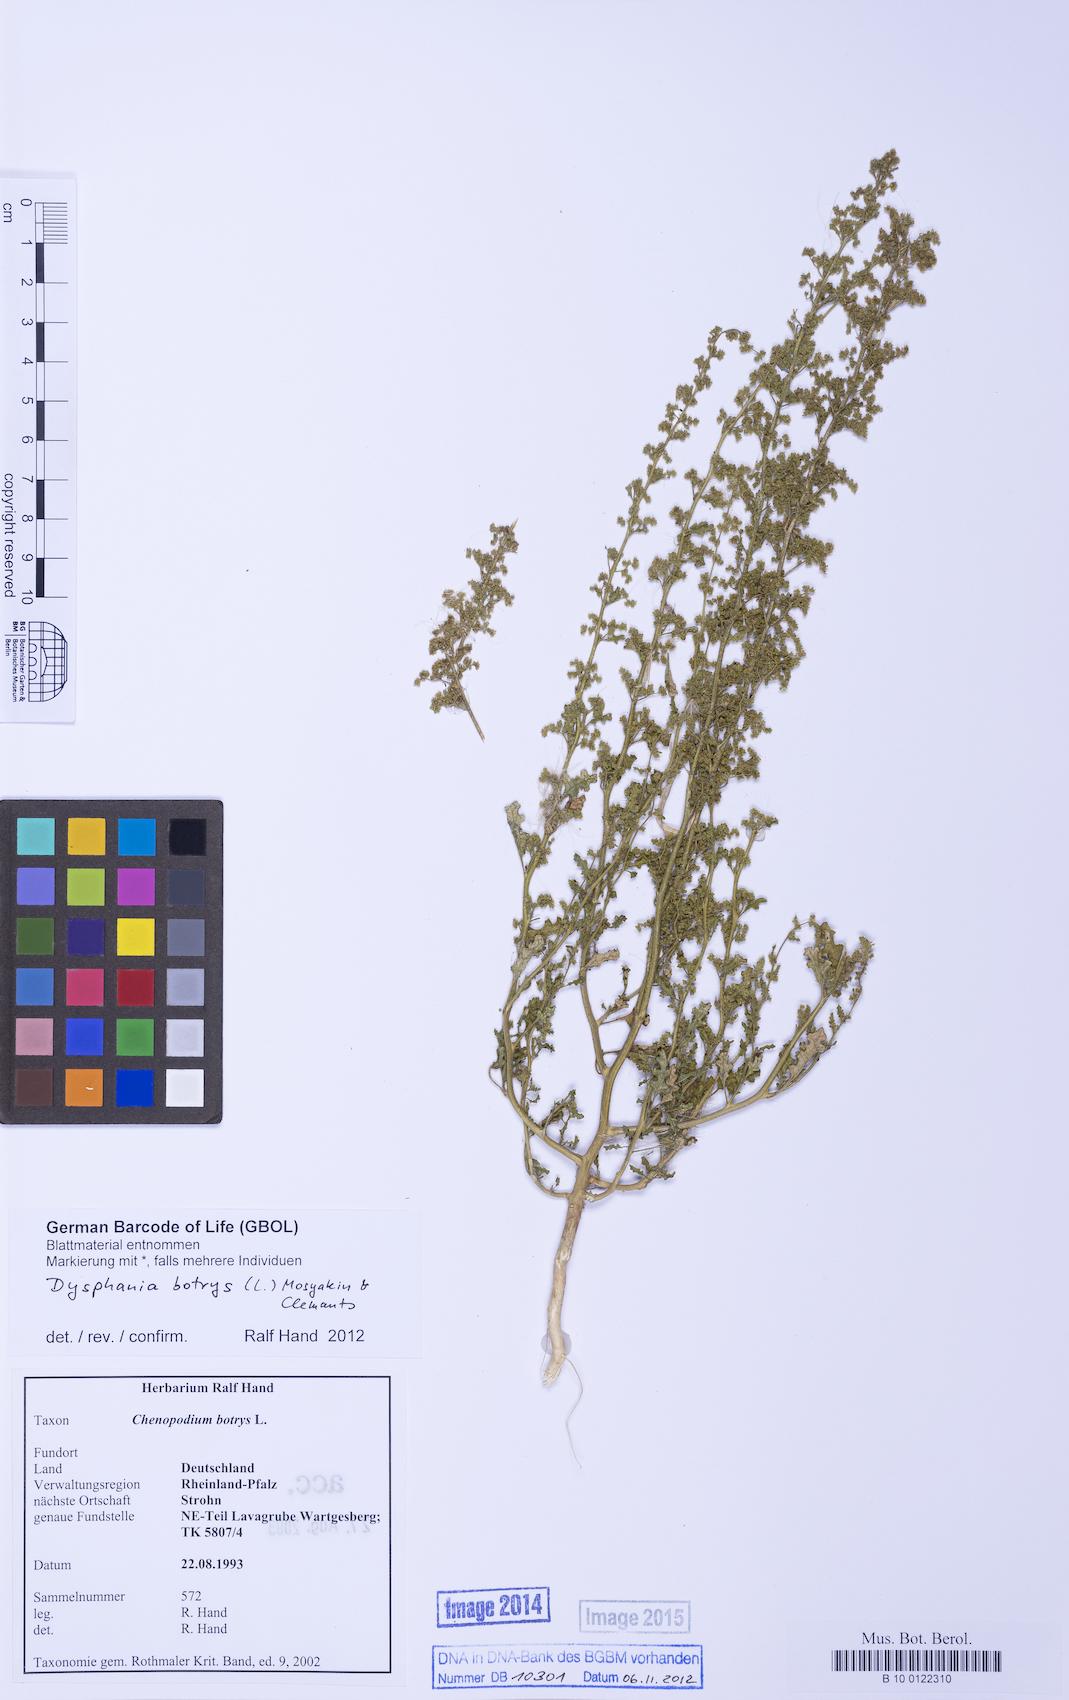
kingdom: Plantae
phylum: Tracheophyta
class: Magnoliopsida
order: Caryophyllales
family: Amaranthaceae
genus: Dysphania
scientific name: Dysphania botrys
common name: Feather-geranium
